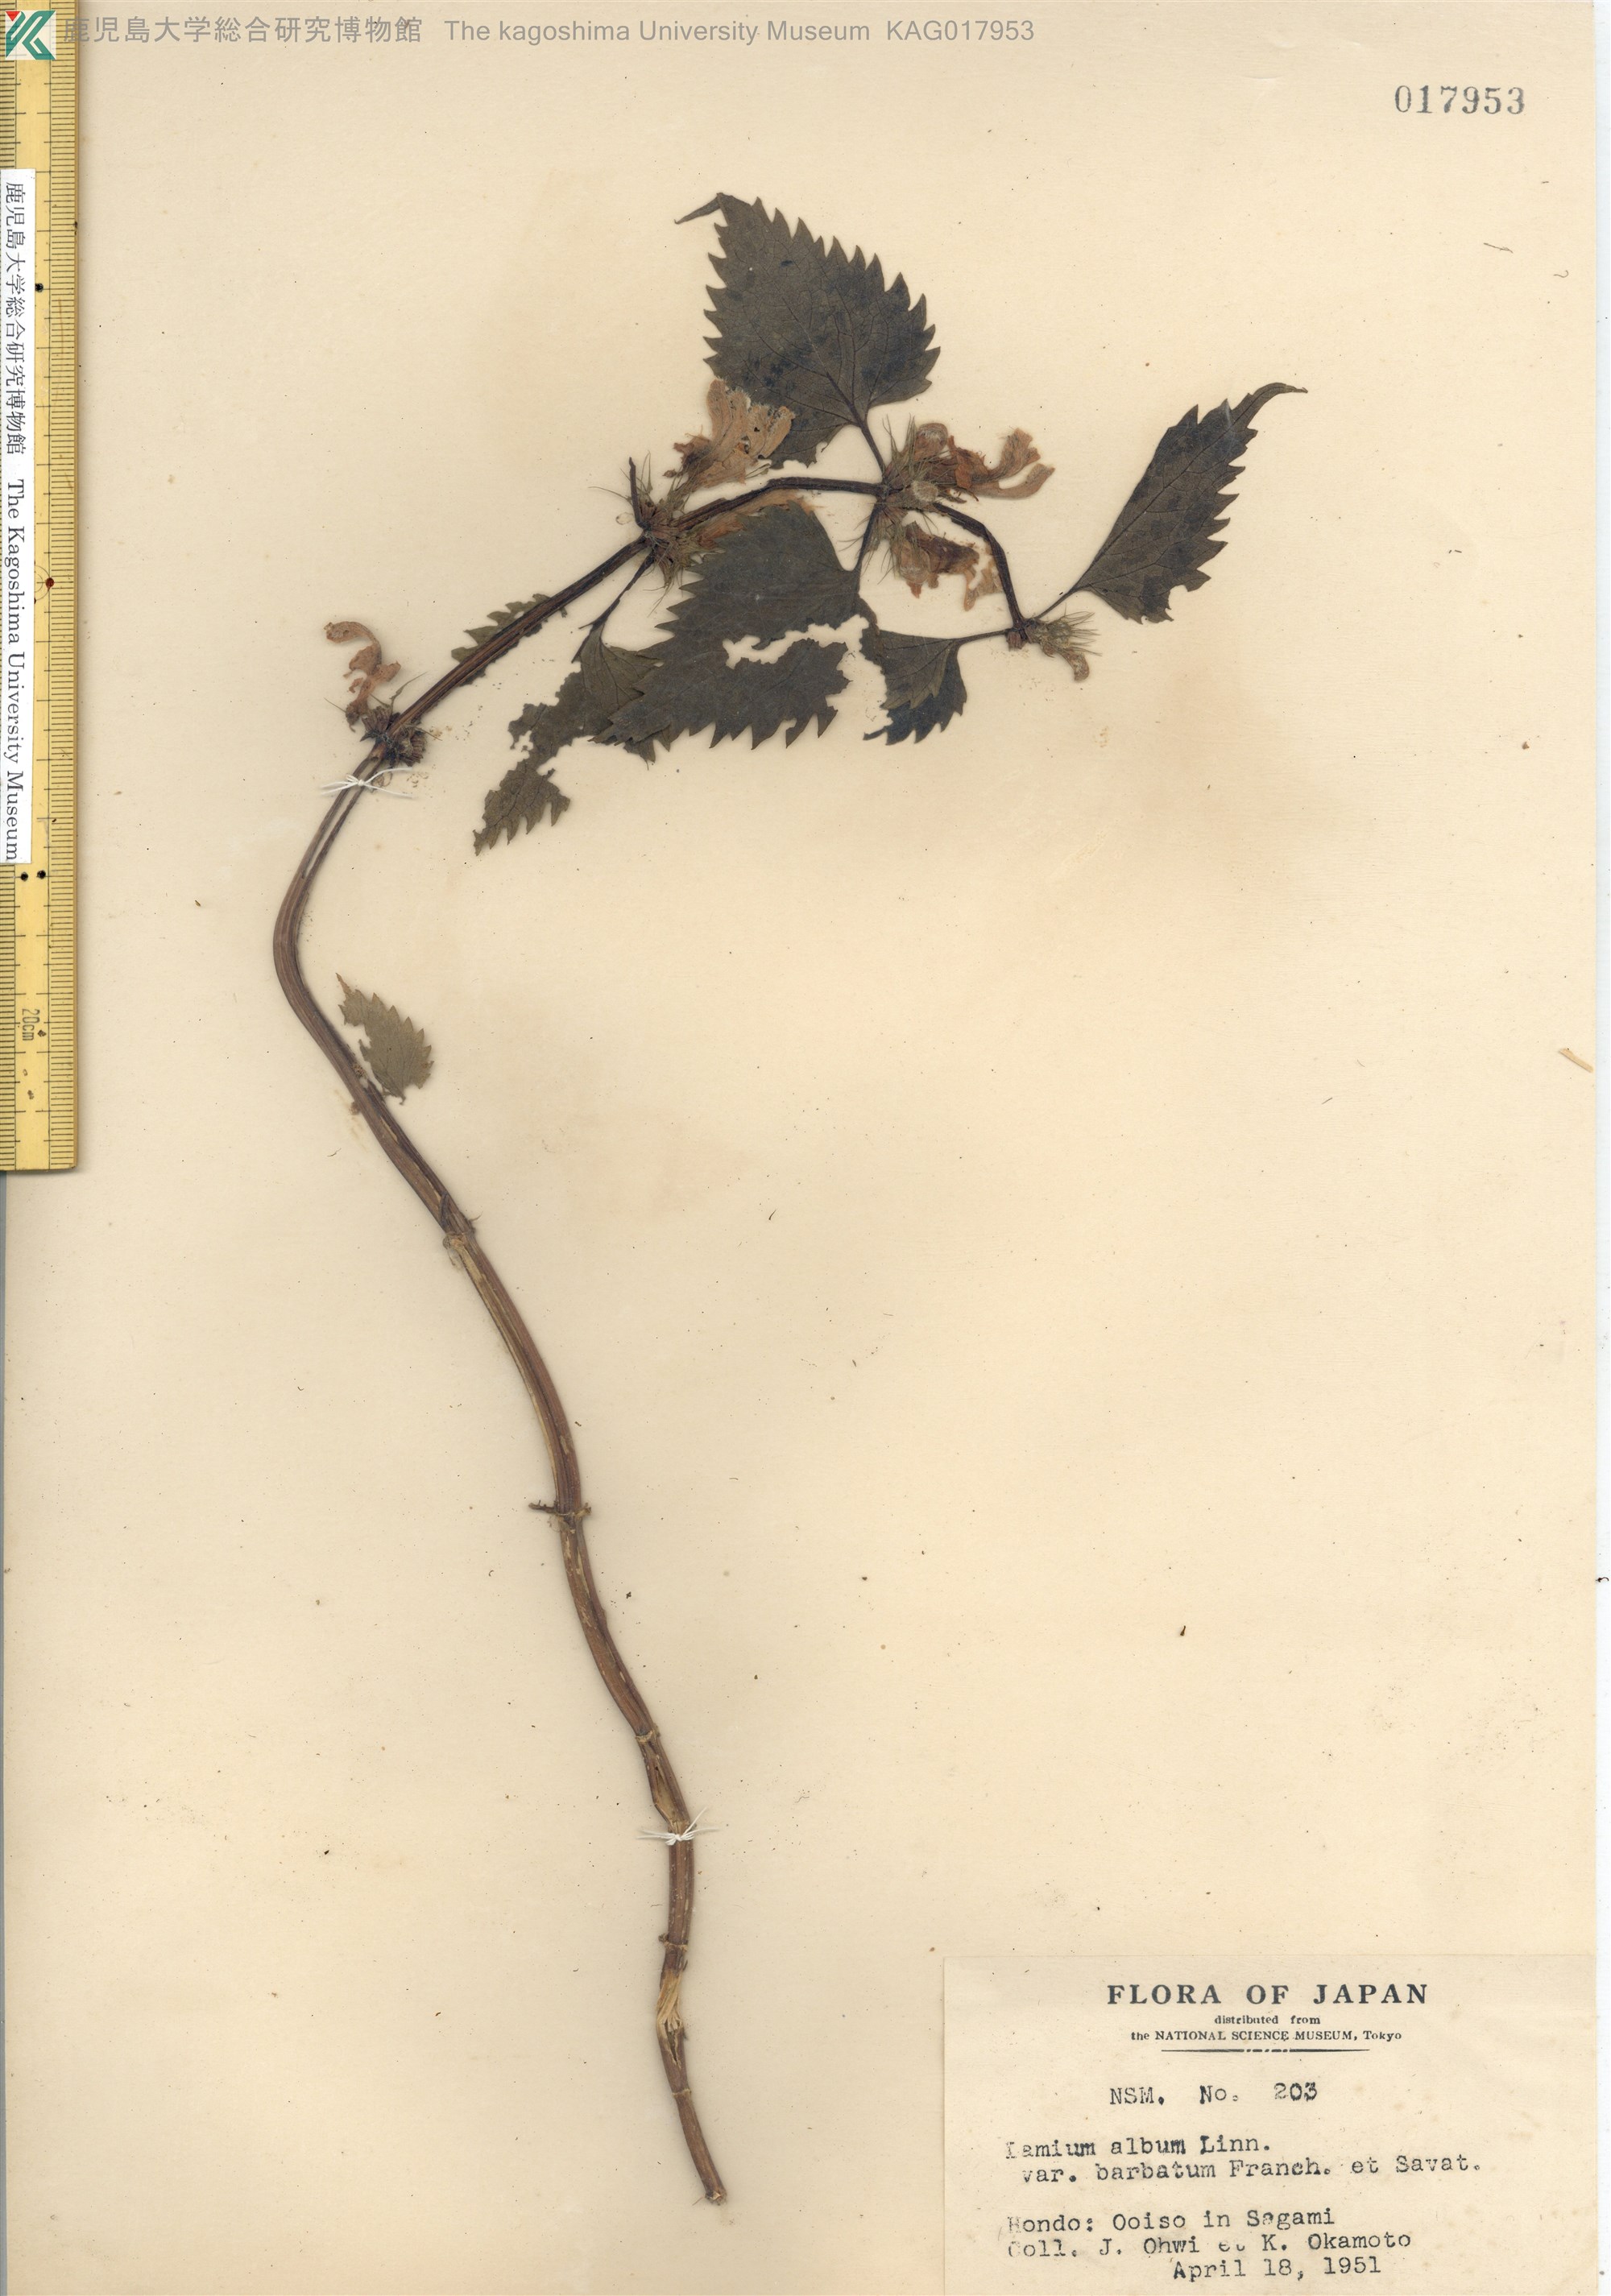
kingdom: Plantae
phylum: Tracheophyta
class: Magnoliopsida
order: Lamiales
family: Lamiaceae
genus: Lamium
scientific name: Lamium album
